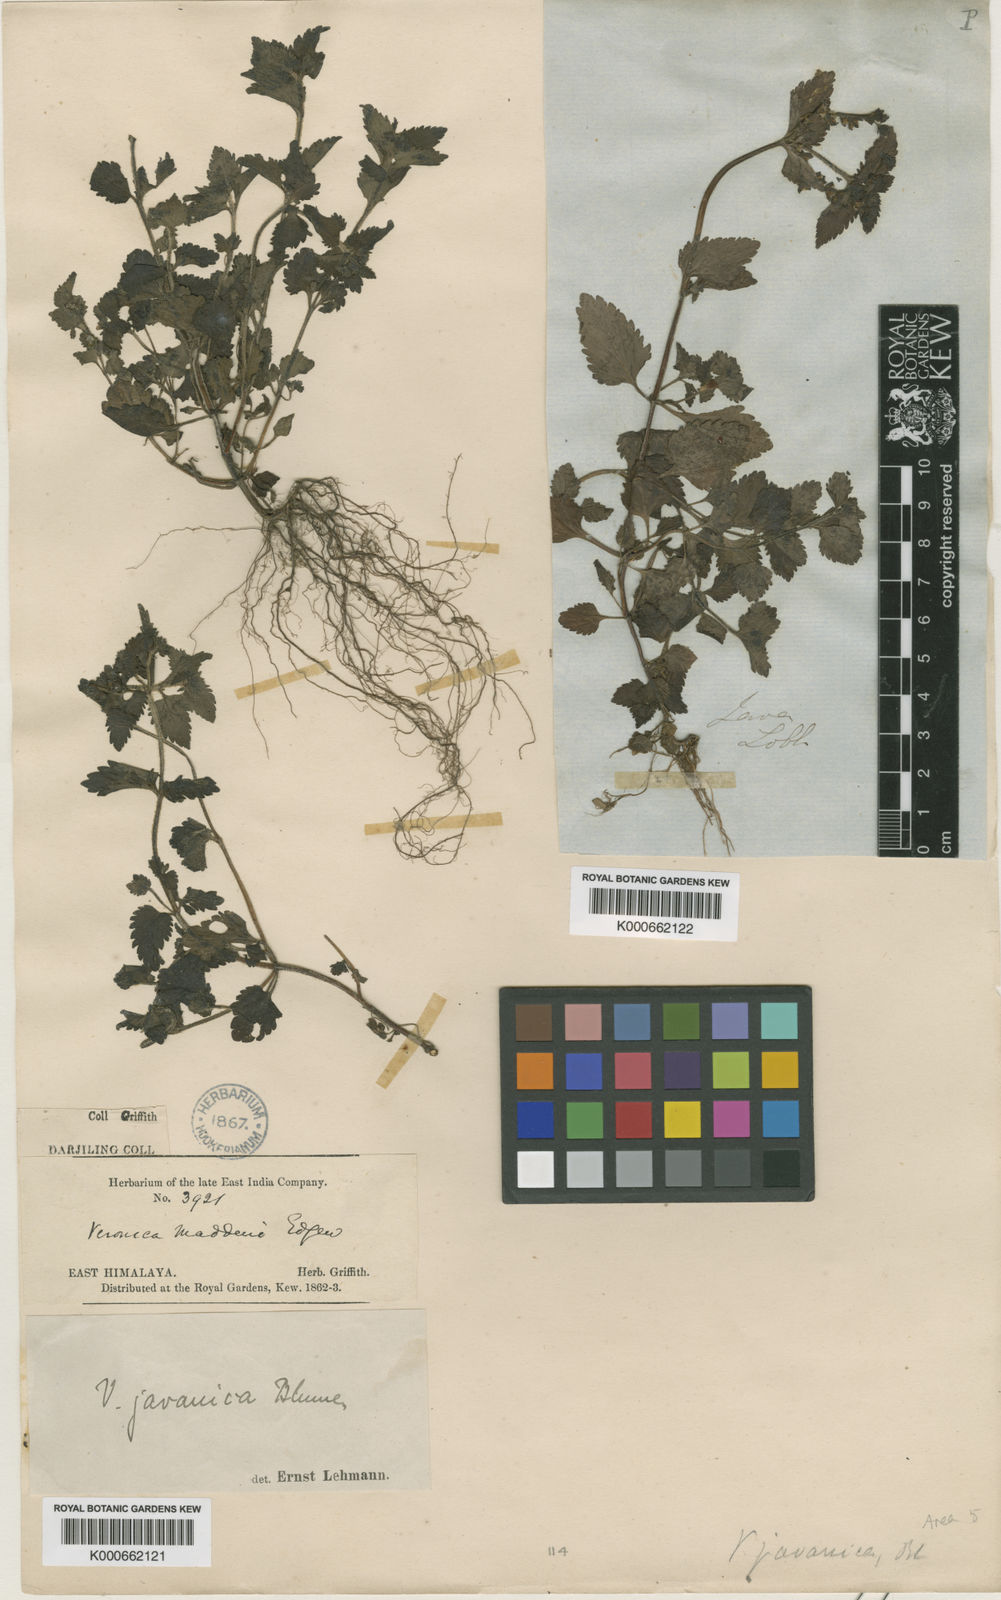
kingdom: Plantae
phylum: Tracheophyta
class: Magnoliopsida
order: Lamiales
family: Plantaginaceae
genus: Veronica
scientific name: Veronica javanica
